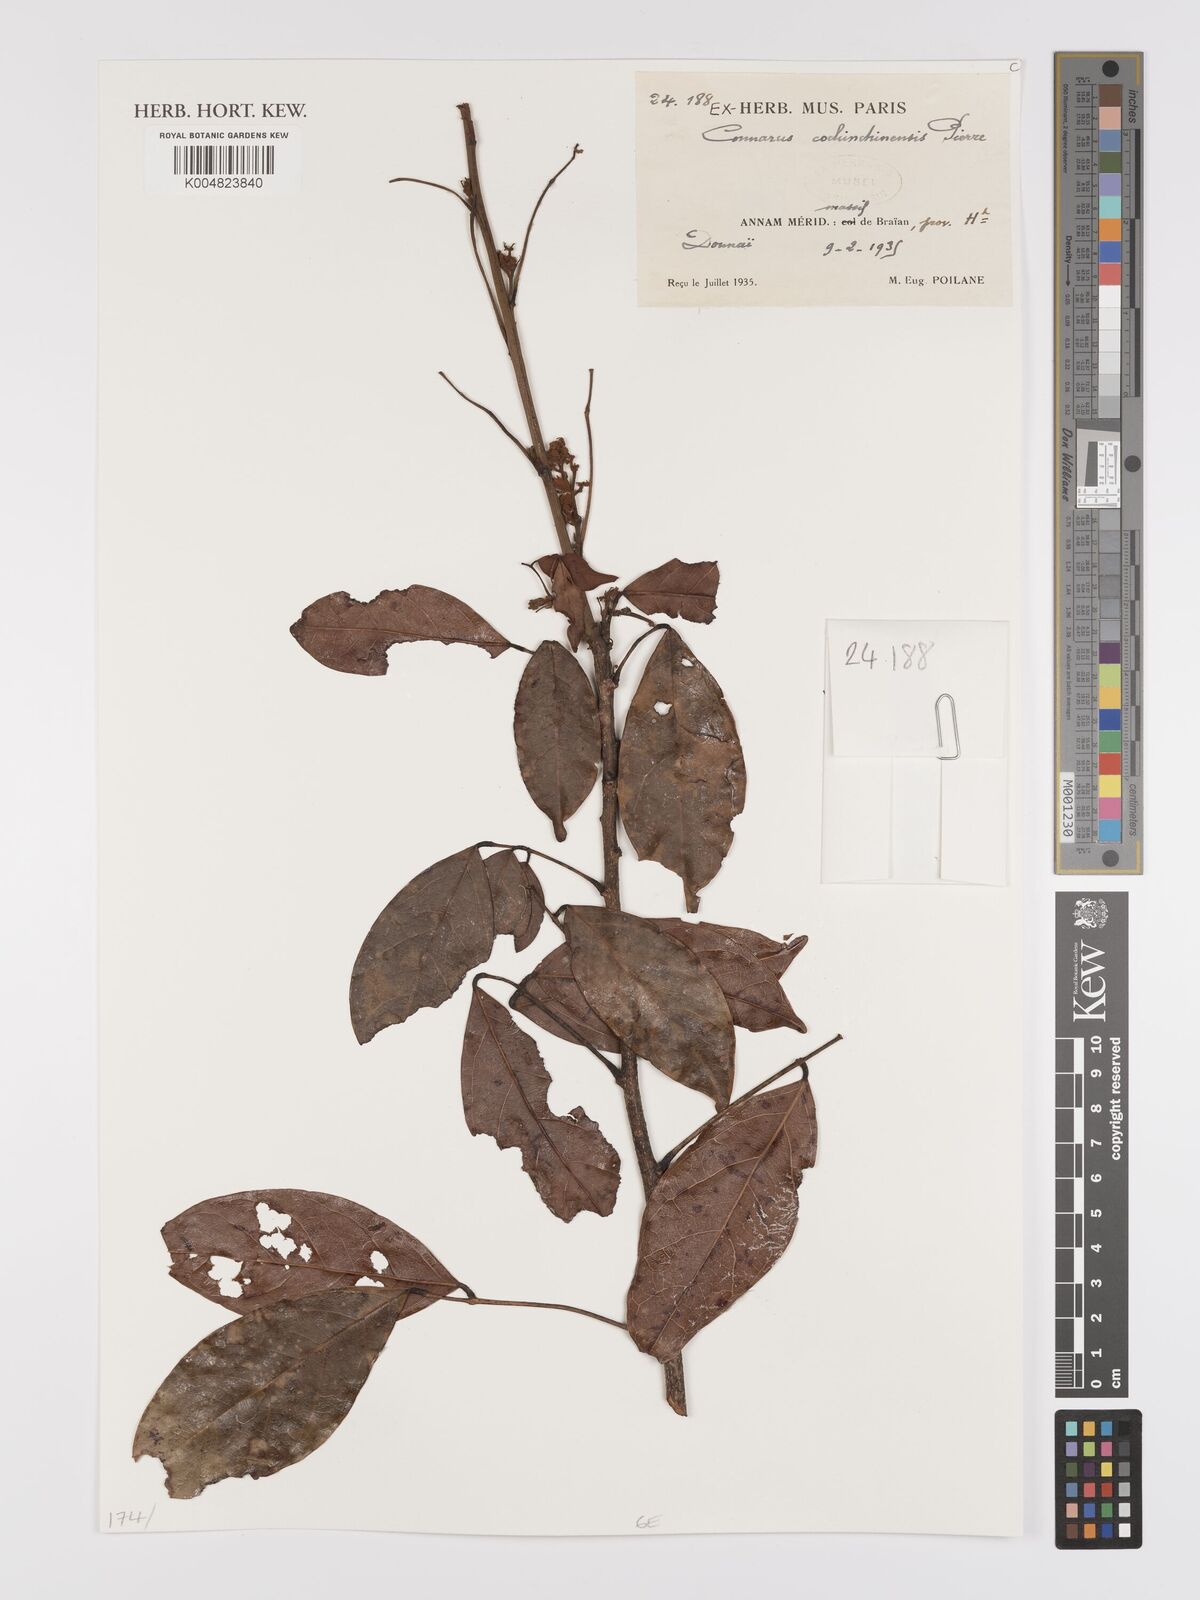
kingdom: Plantae
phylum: Tracheophyta
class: Magnoliopsida
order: Oxalidales
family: Connaraceae
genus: Connarus
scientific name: Connarus cochinchinensis
